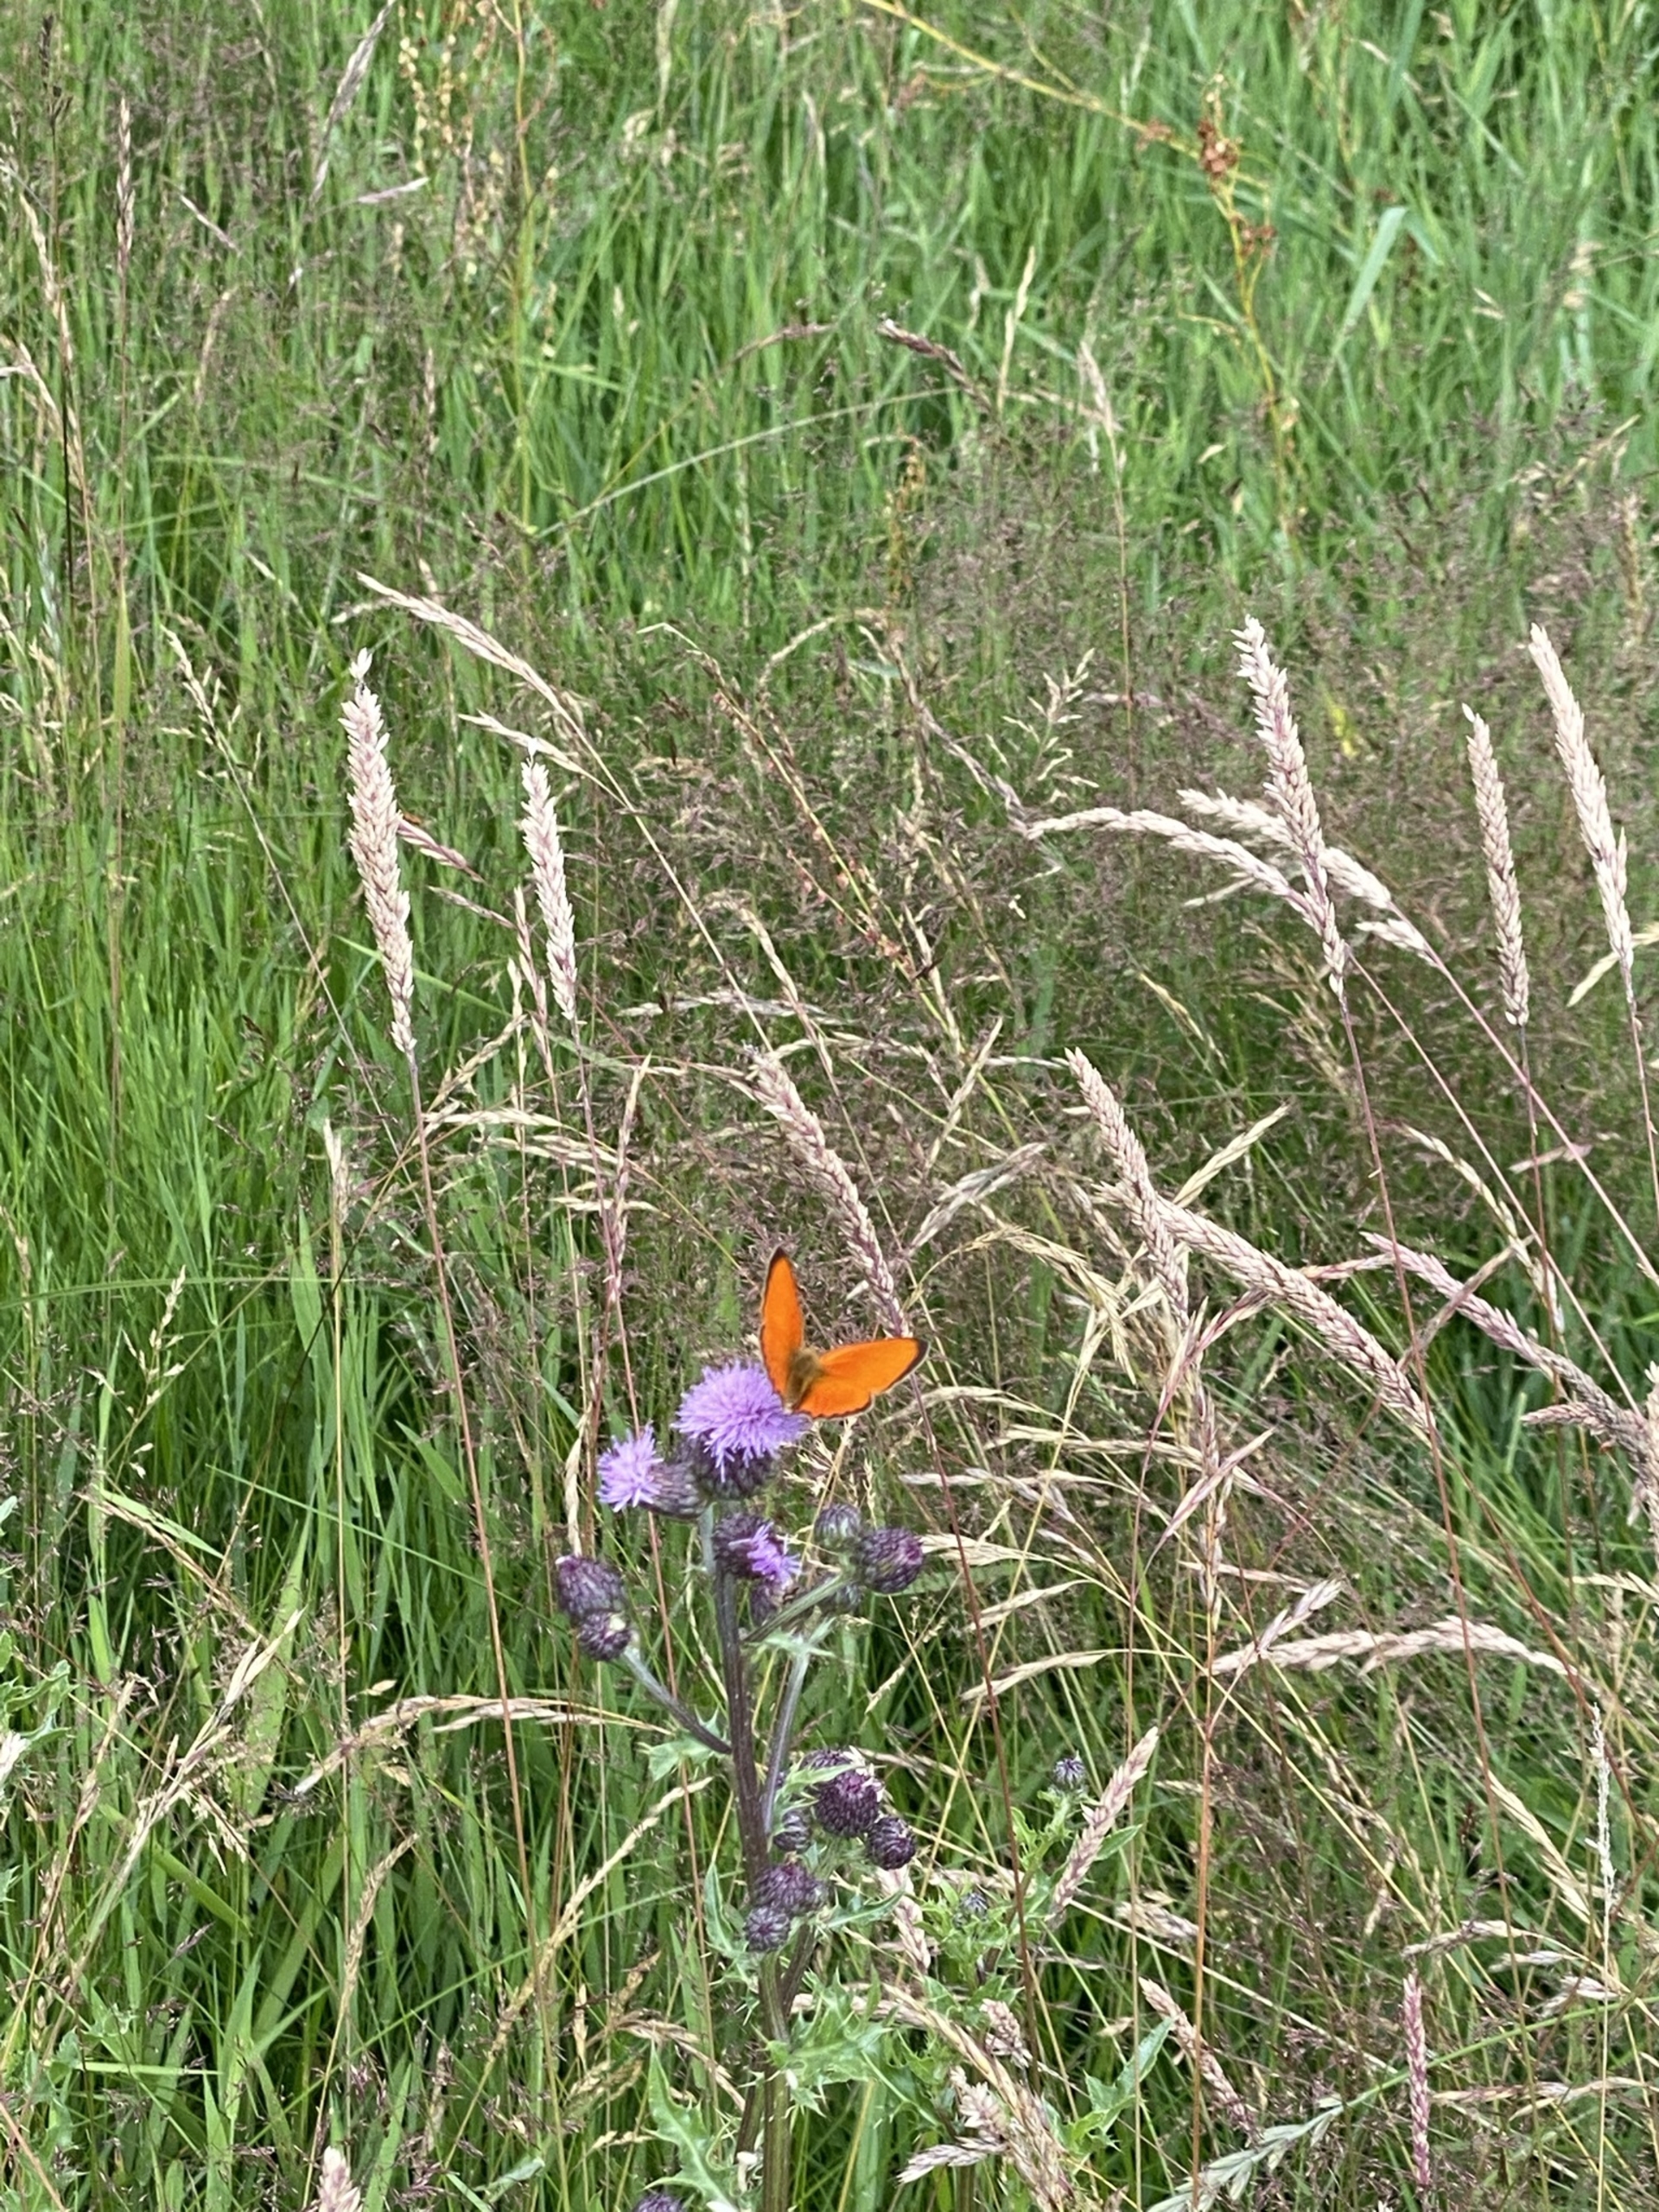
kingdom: Animalia
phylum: Arthropoda
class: Insecta
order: Lepidoptera
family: Lycaenidae
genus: Lycaena
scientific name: Lycaena virgaureae
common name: Dukatsommerfugl
